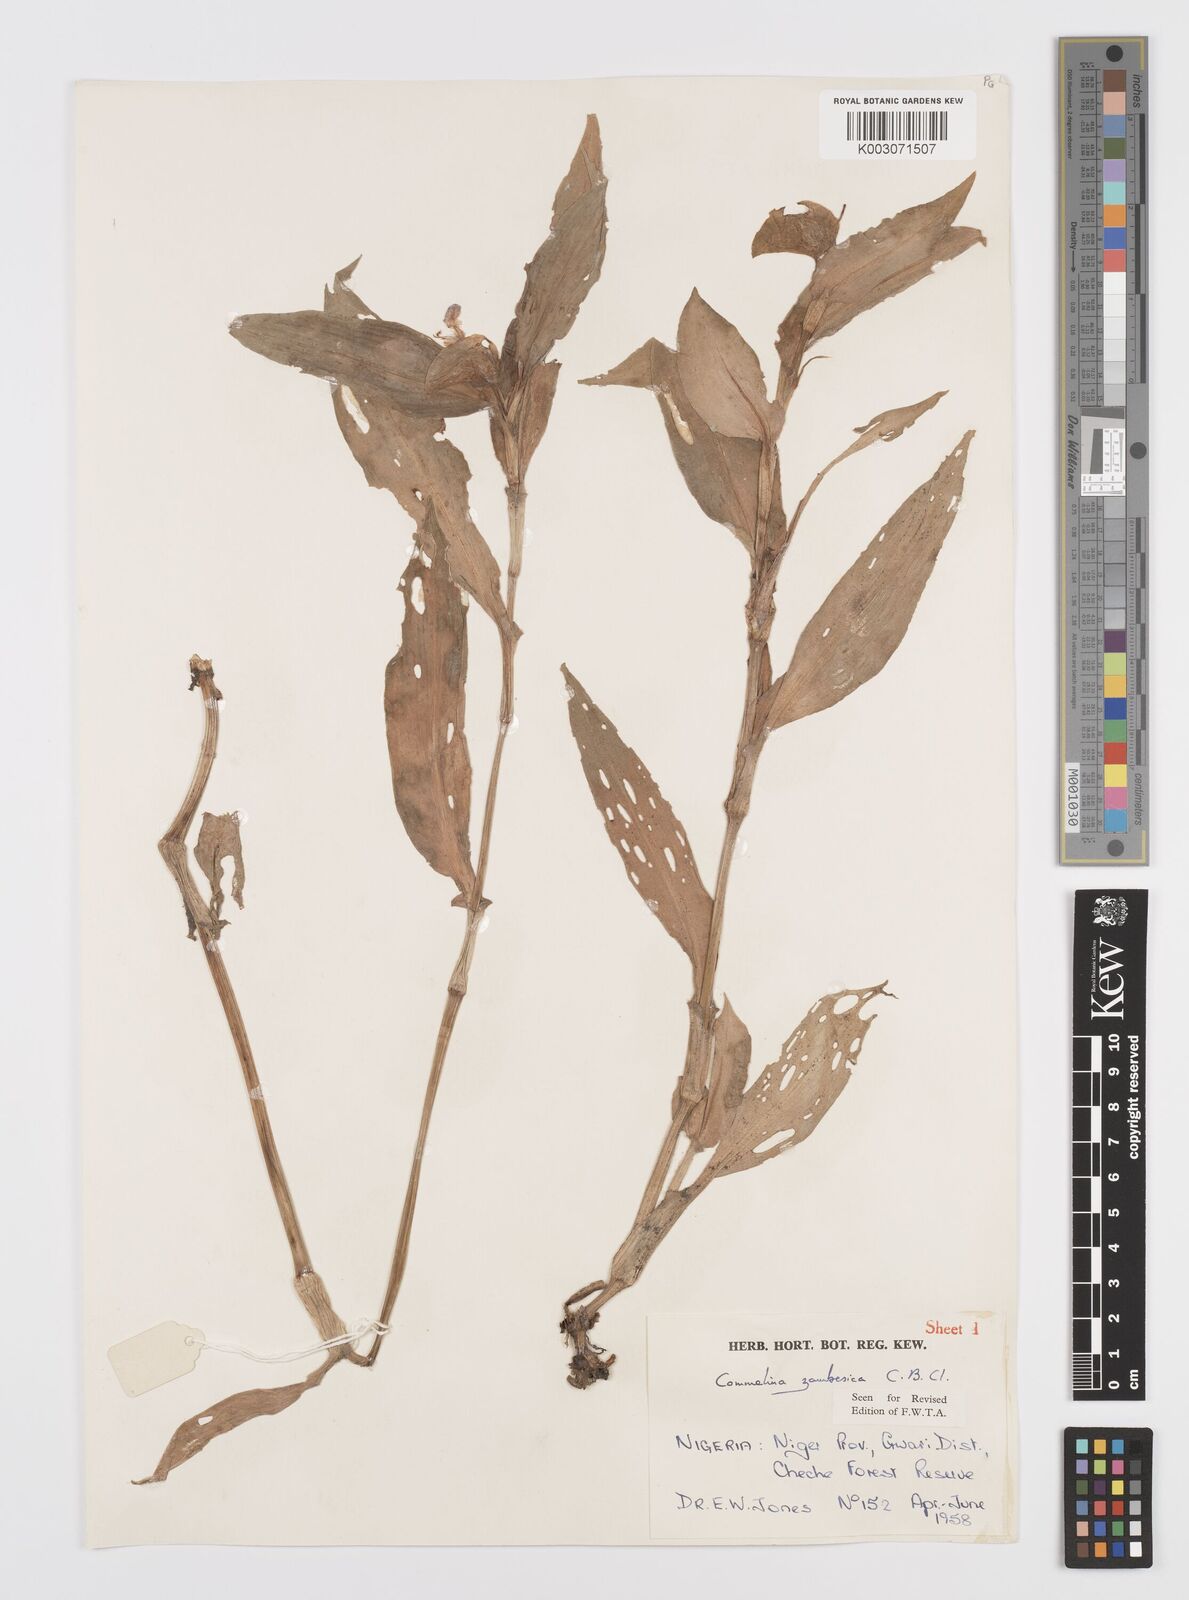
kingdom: Plantae
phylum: Tracheophyta
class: Liliopsida
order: Commelinales
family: Commelinaceae
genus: Commelina
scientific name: Commelina zambesica
